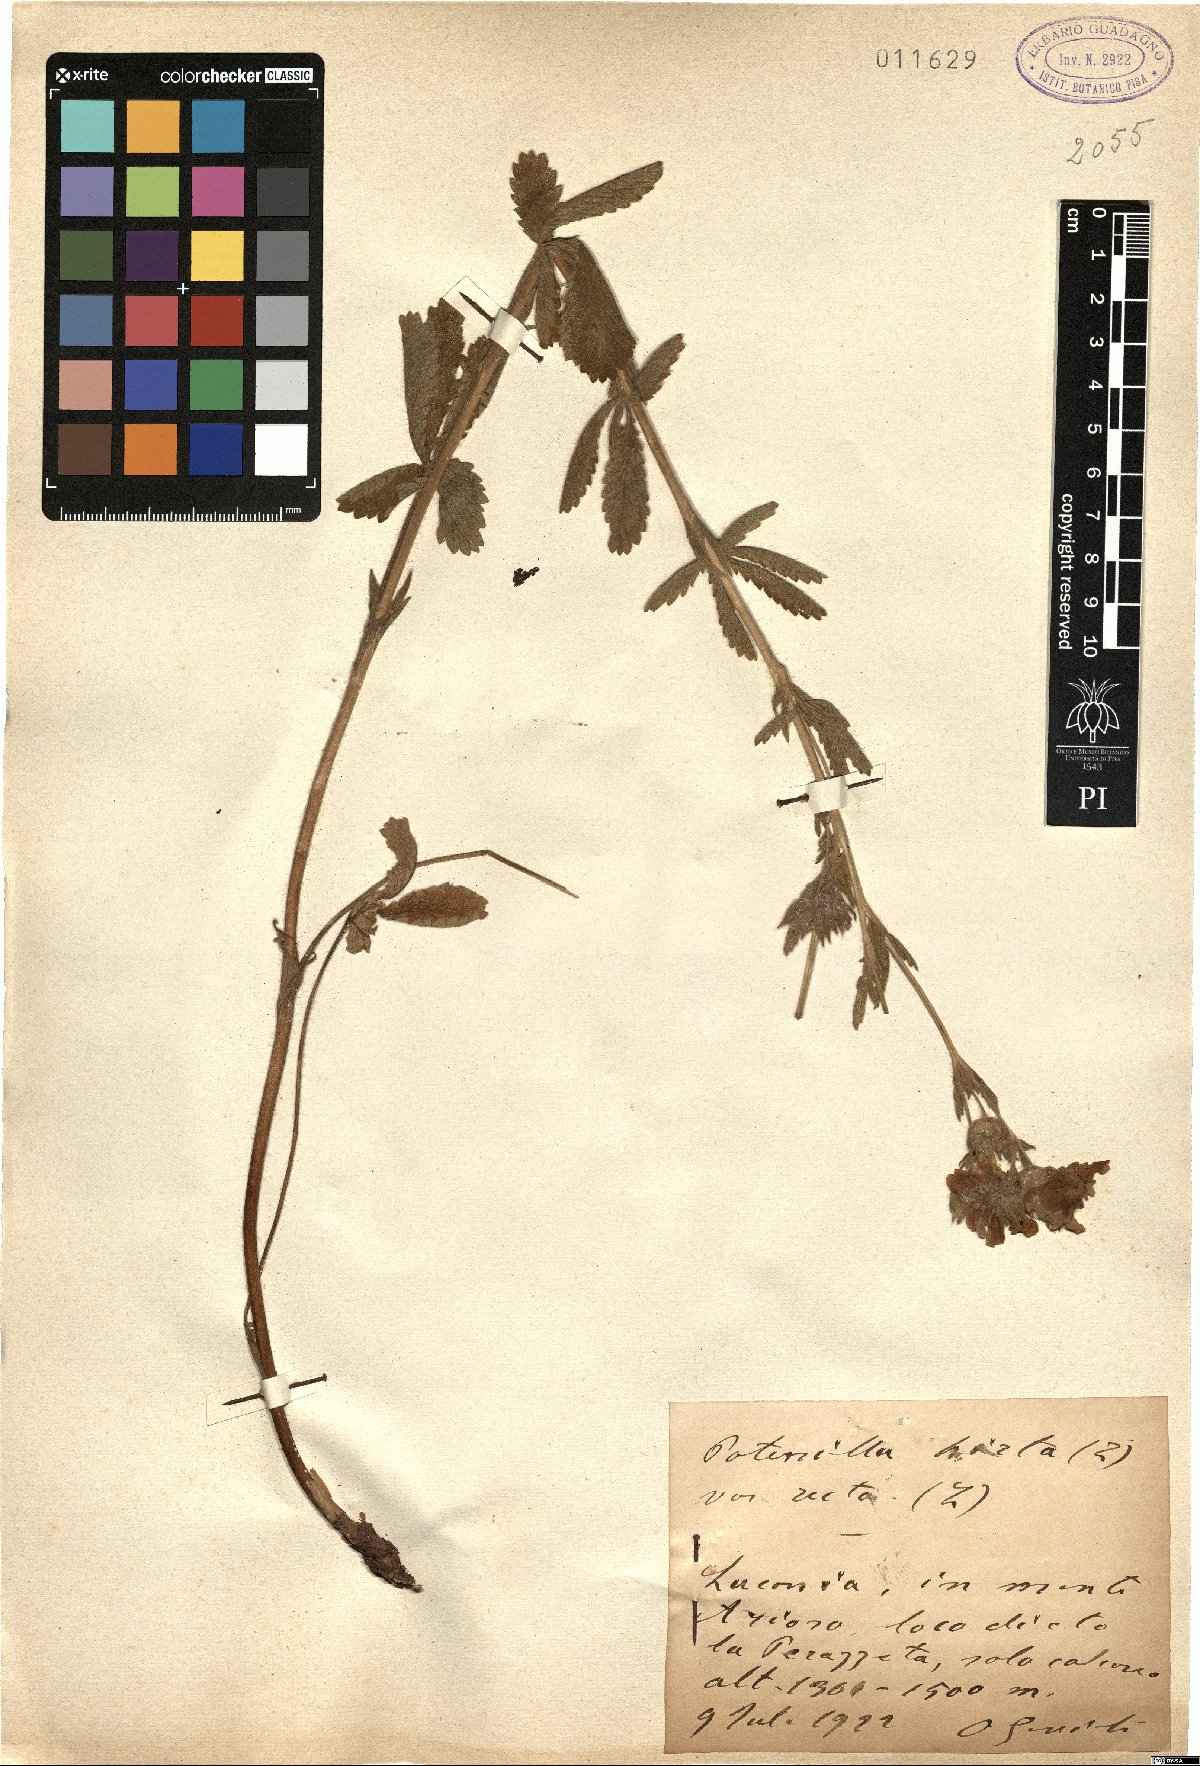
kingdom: Plantae
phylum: Tracheophyta
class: Magnoliopsida
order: Rosales
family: Rosaceae
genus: Potentilla
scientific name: Potentilla recta
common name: Sulphur cinquefoil
